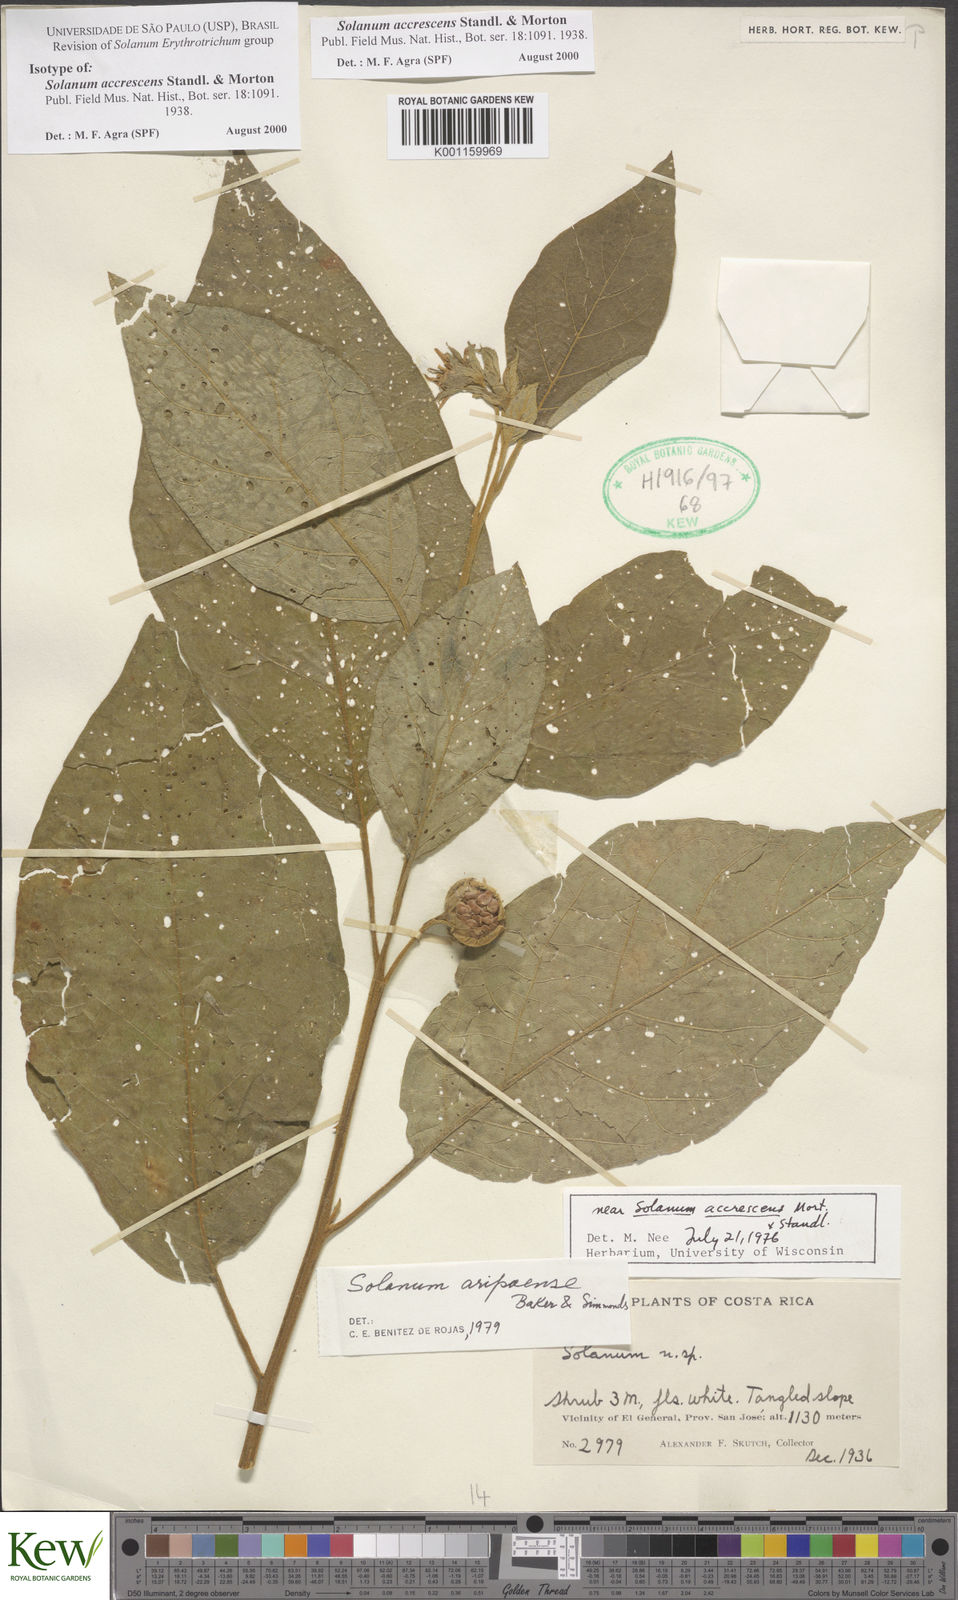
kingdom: Plantae
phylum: Tracheophyta
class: Magnoliopsida
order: Solanales
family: Solanaceae
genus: Solanum
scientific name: Solanum accrescens
